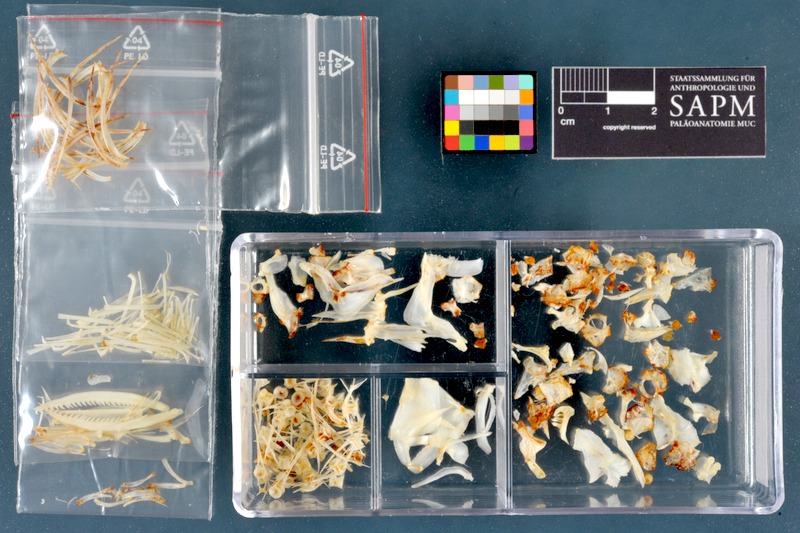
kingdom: Animalia
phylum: Chordata
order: Cypriniformes
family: Cyprinidae
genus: Cyprinion
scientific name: Cyprinion macrostomum
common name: Largemouth lotak
